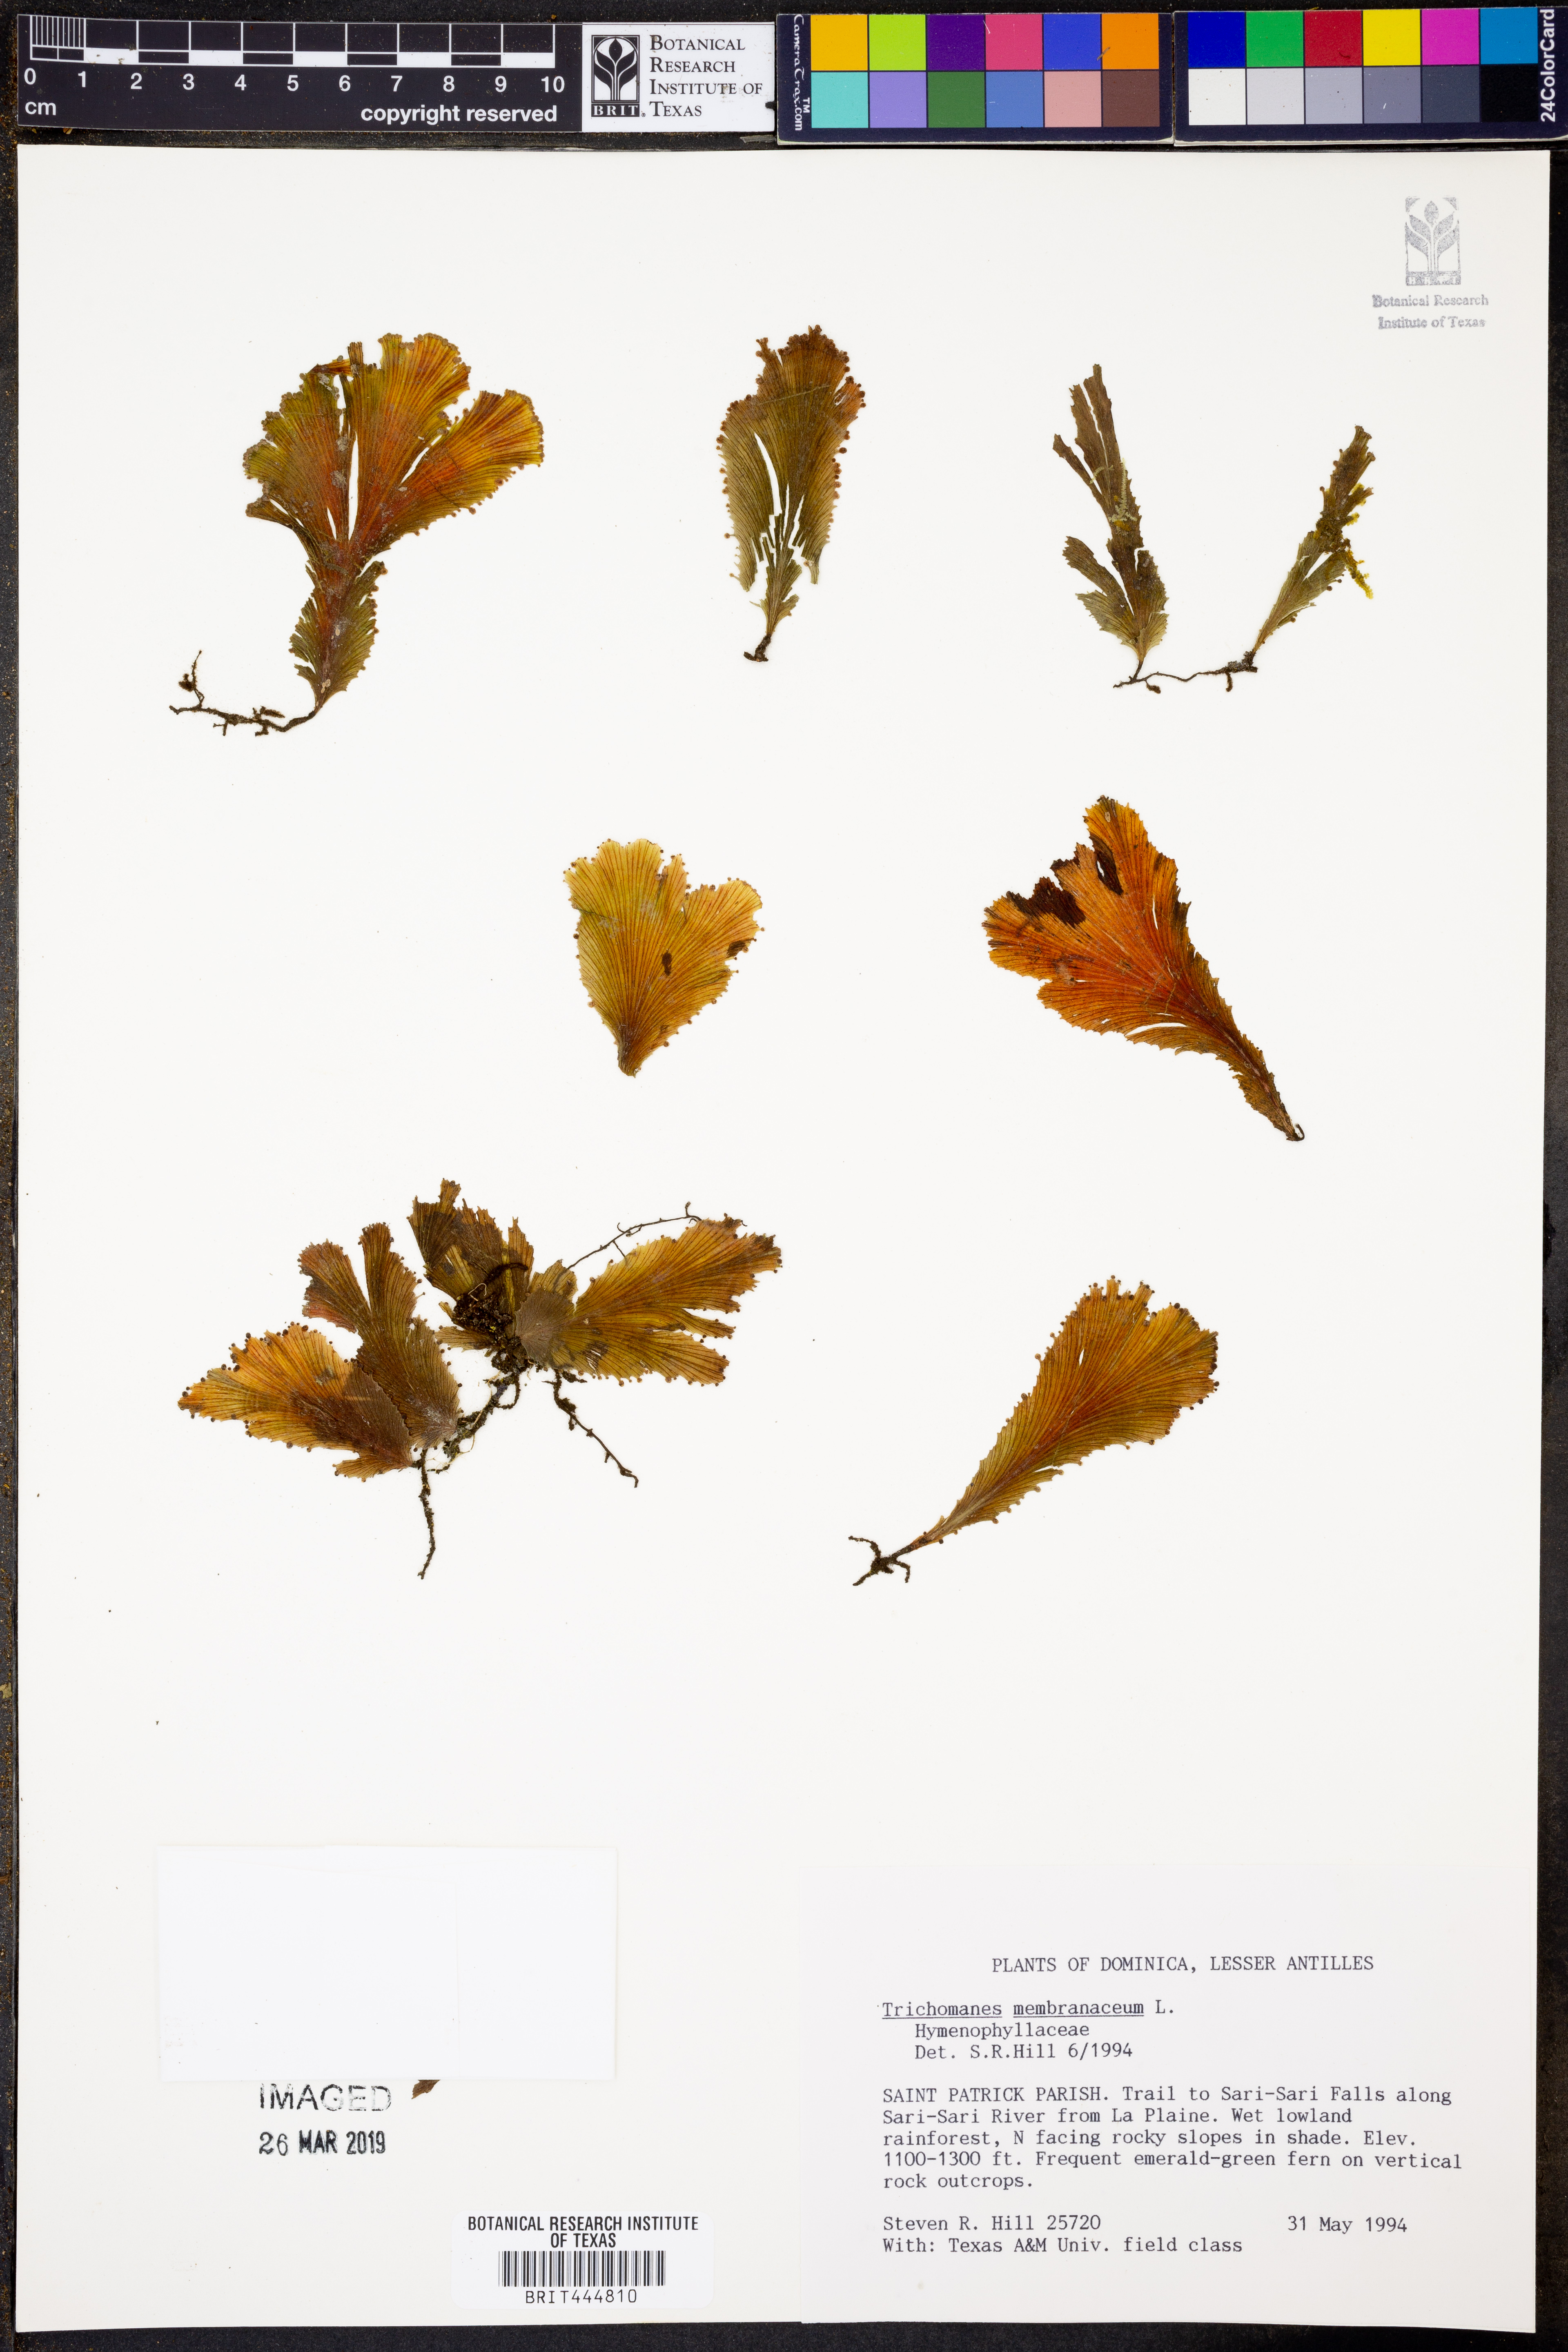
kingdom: Plantae
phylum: Tracheophyta
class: Polypodiopsida
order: Hymenophyllales
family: Hymenophyllaceae
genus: Didymoglossum
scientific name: Didymoglossum membranaceum
